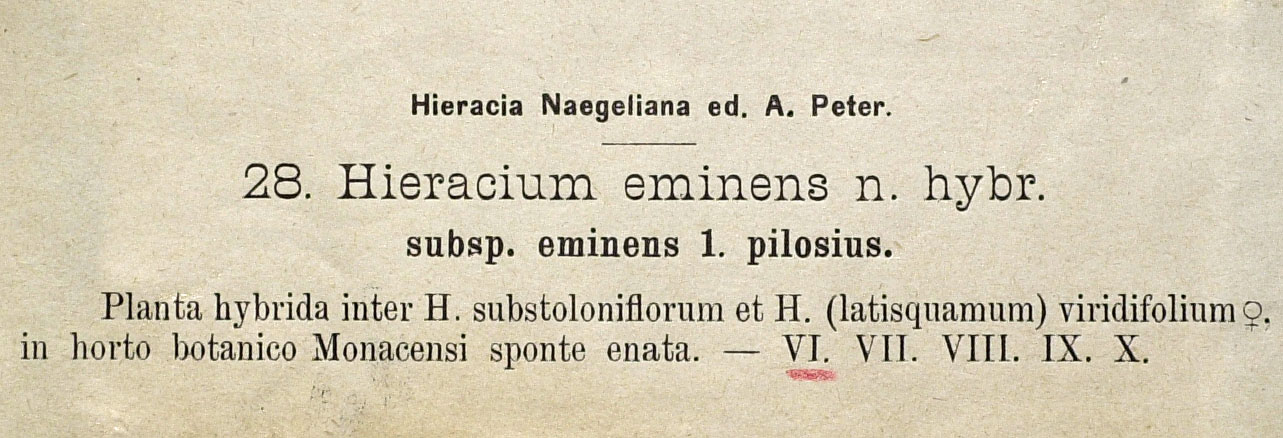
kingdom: Plantae
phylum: Tracheophyta
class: Magnoliopsida
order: Asterales
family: Asteraceae
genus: Pilosella
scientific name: Pilosella eminens
